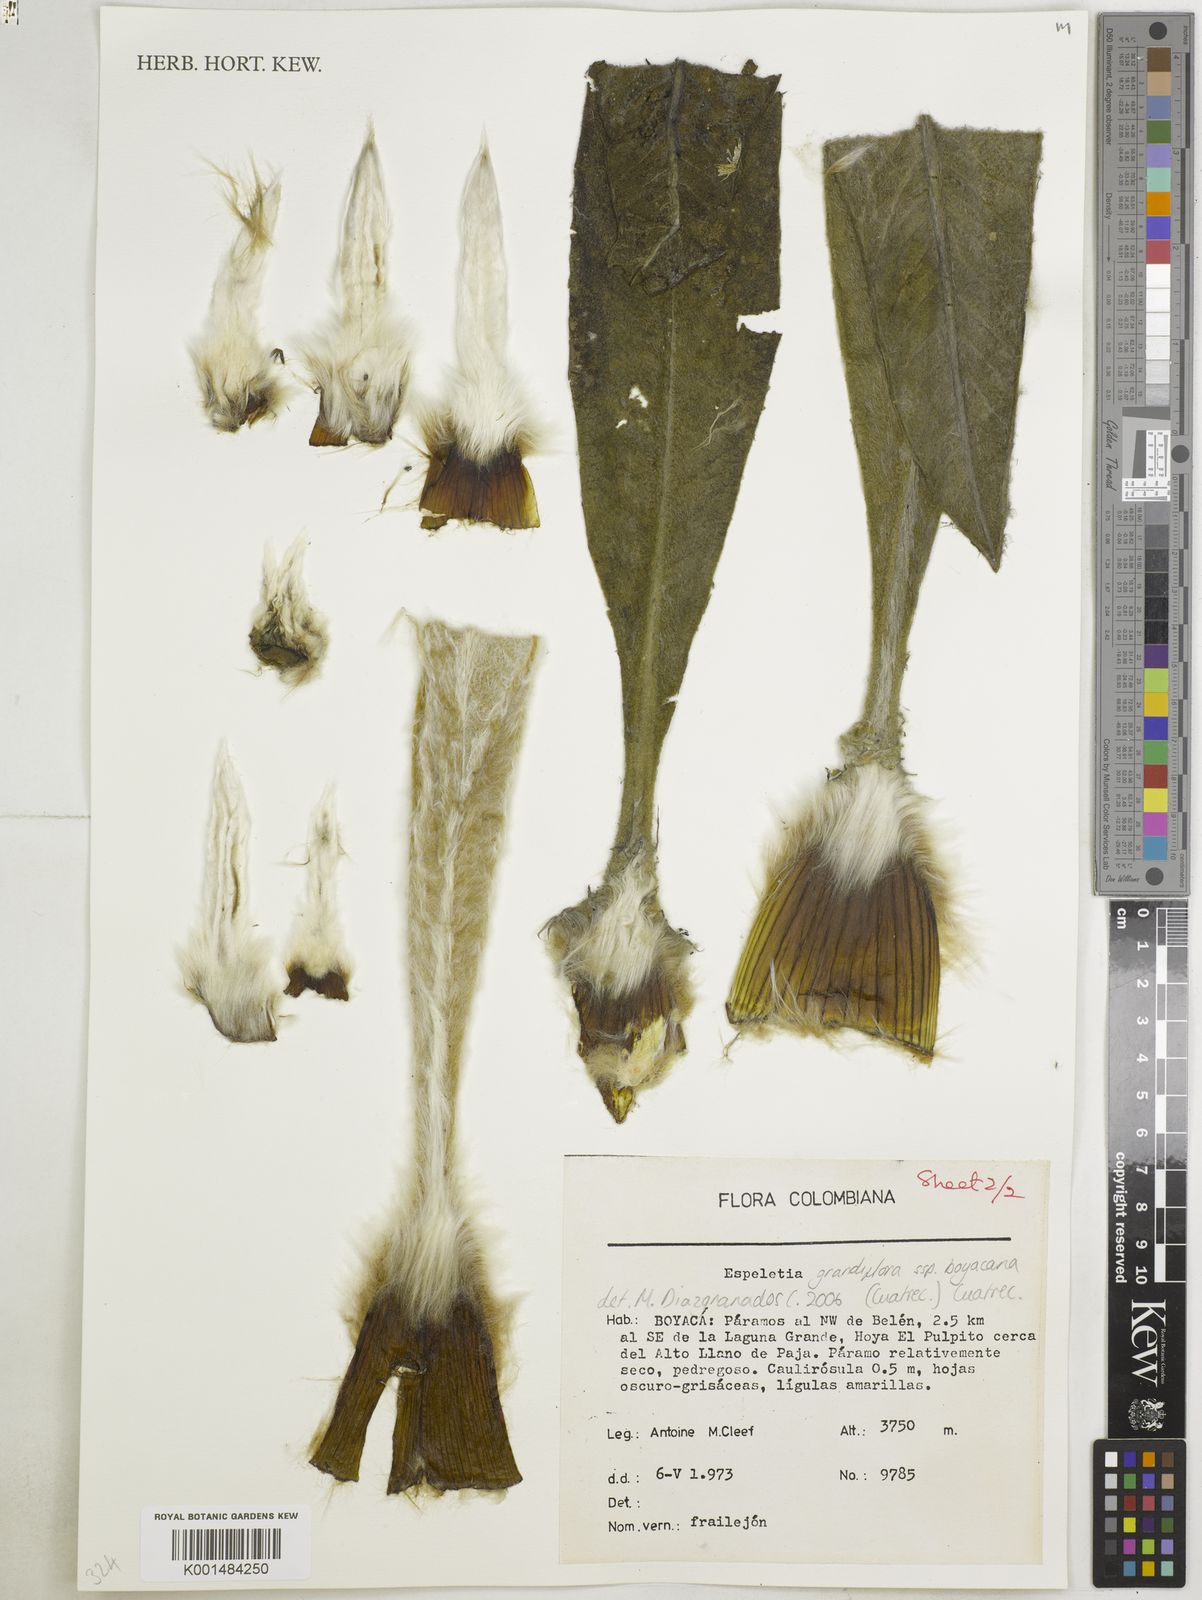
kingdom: Plantae
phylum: Tracheophyta
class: Magnoliopsida
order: Asterales
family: Asteraceae
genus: Espeletia
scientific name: Espeletia grandiflora
